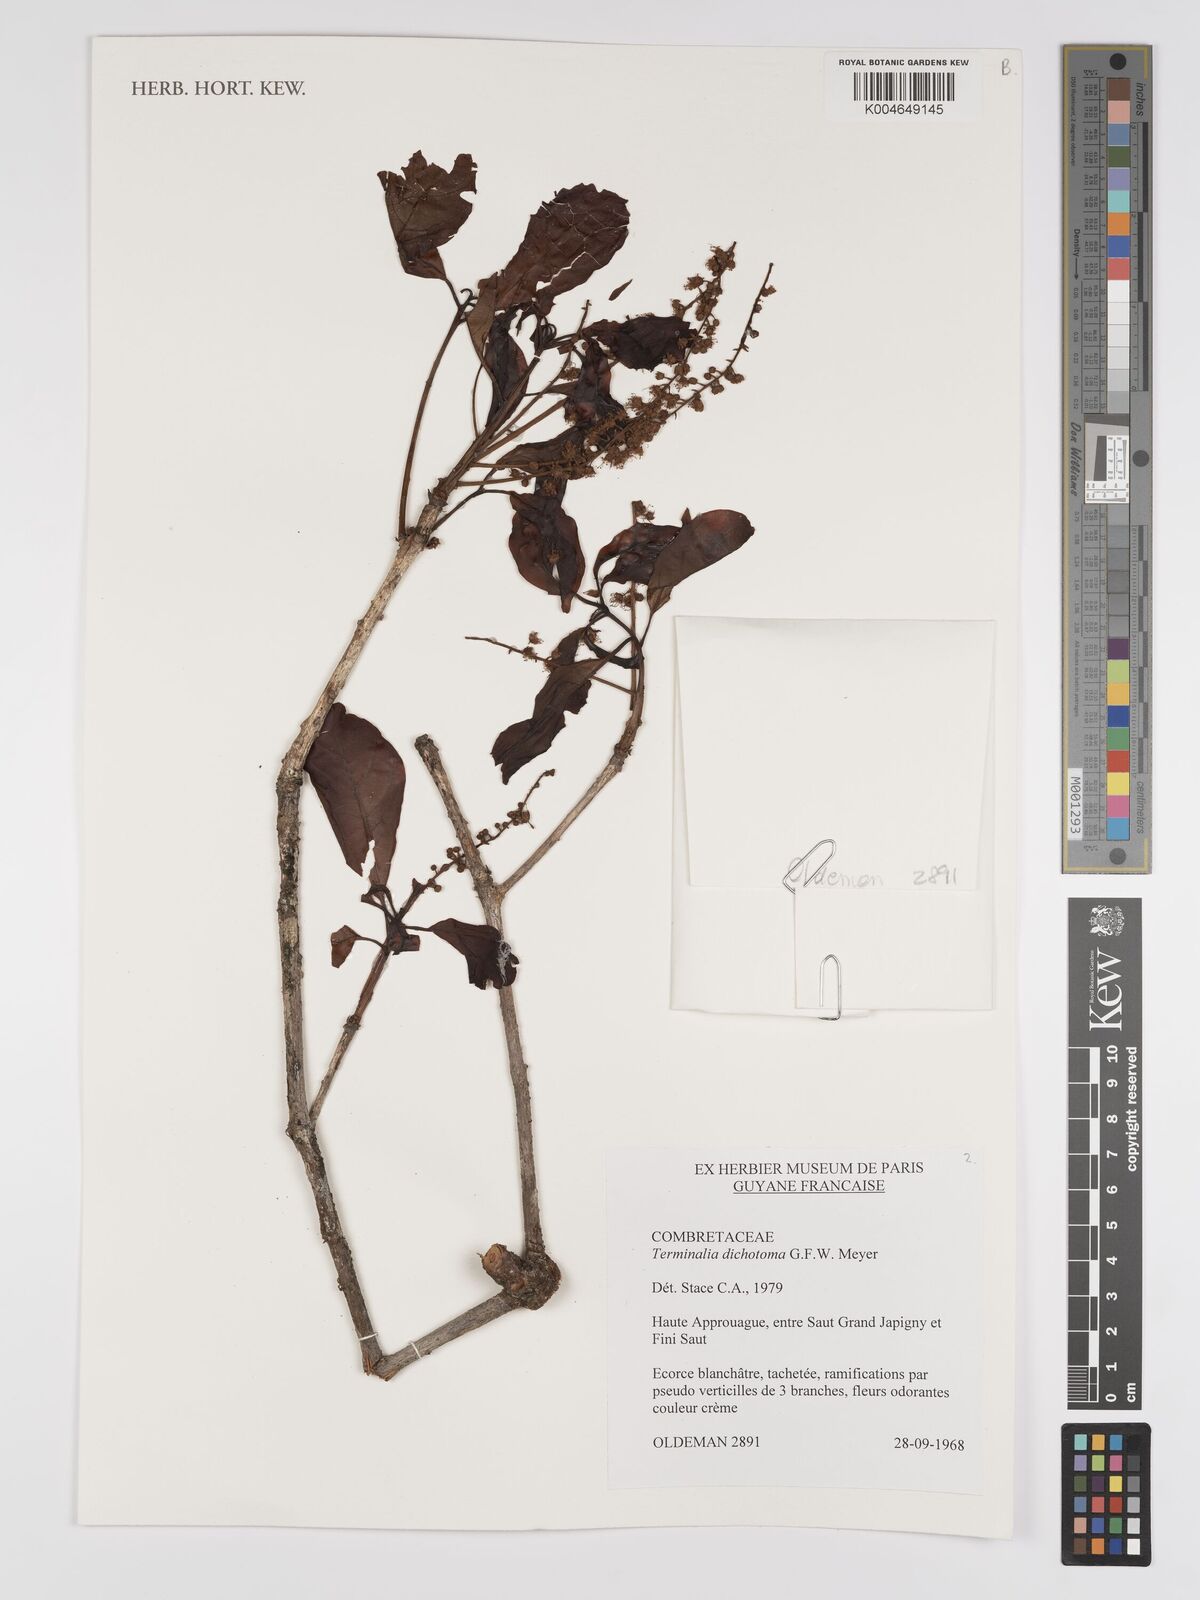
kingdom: Plantae
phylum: Tracheophyta
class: Magnoliopsida
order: Myrtales
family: Combretaceae
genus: Terminalia
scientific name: Terminalia dichotoma
